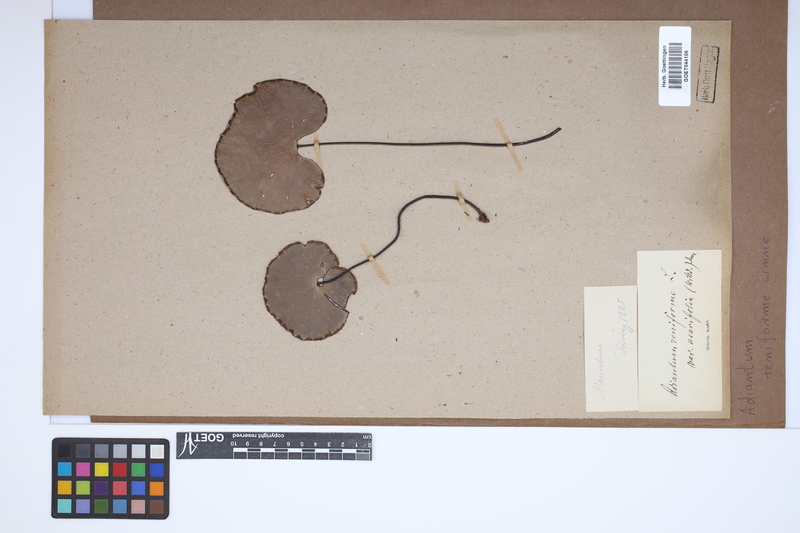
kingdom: Plantae
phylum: Tracheophyta
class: Polypodiopsida
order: Polypodiales
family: Pteridaceae
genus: Adiantum
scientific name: Adiantum reniforme
